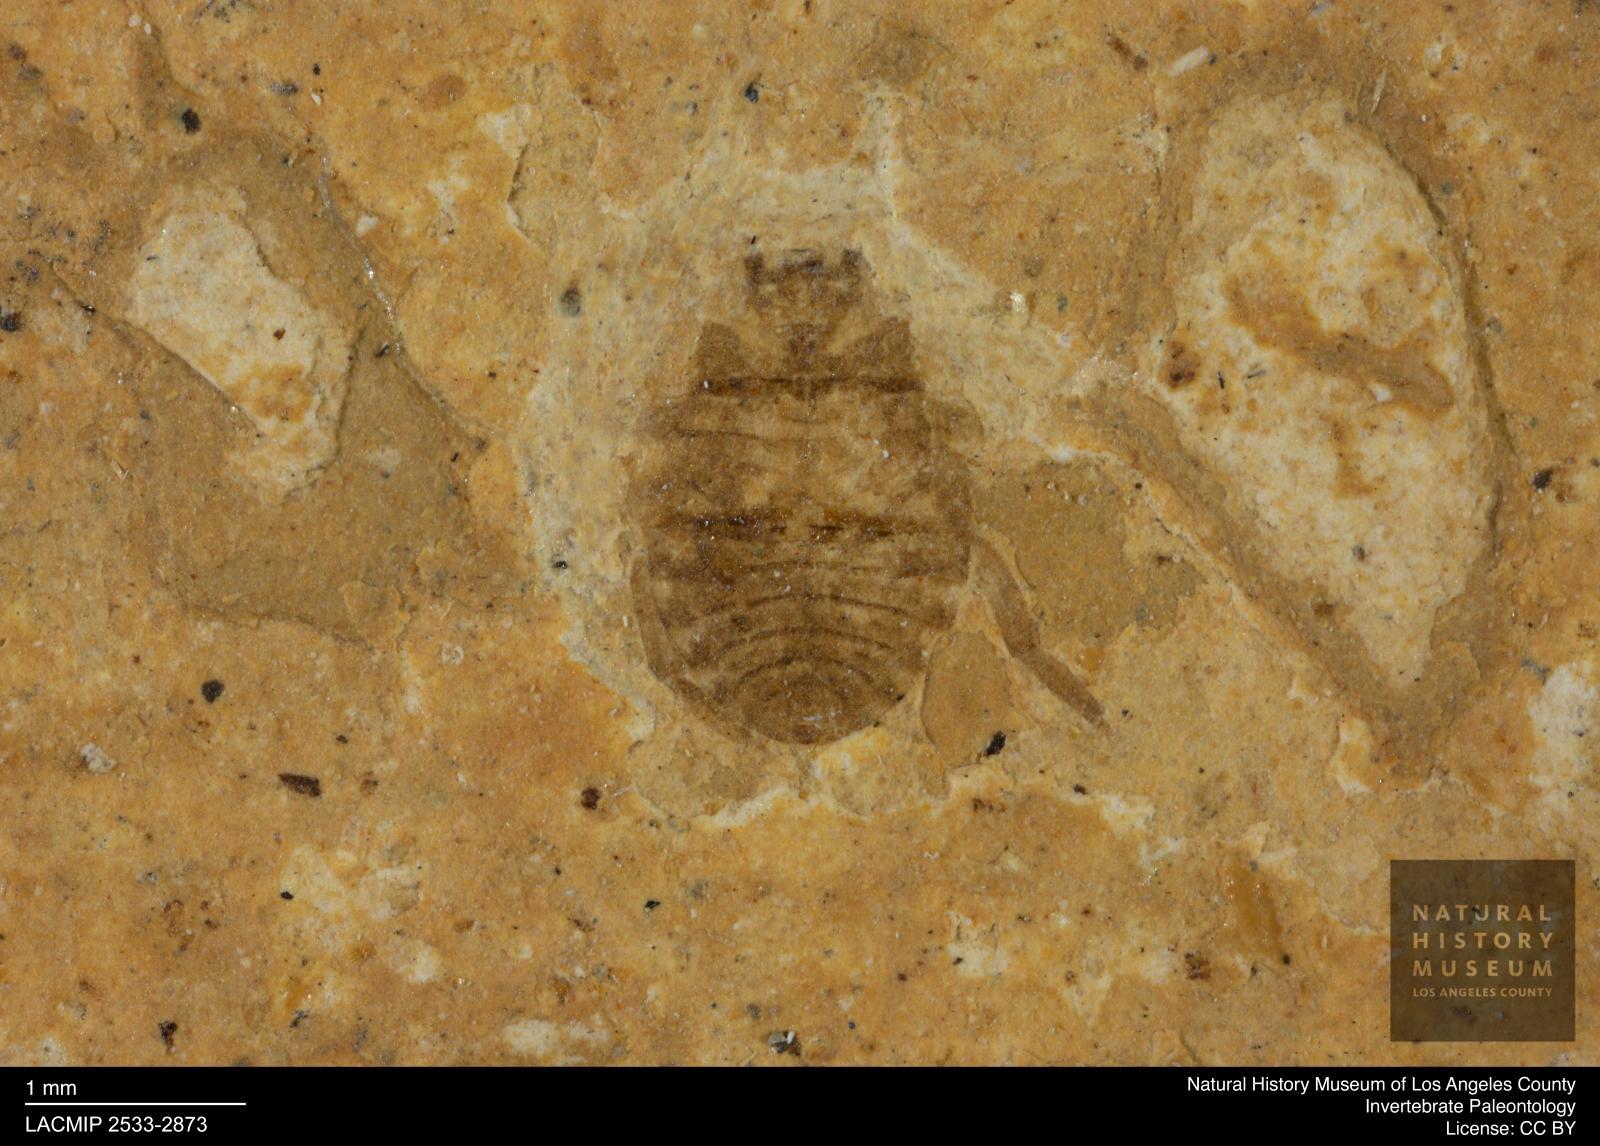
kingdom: Animalia
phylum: Arthropoda
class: Insecta
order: Hemiptera
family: Naucoridae
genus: Naucoris
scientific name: Naucoris rottensis
